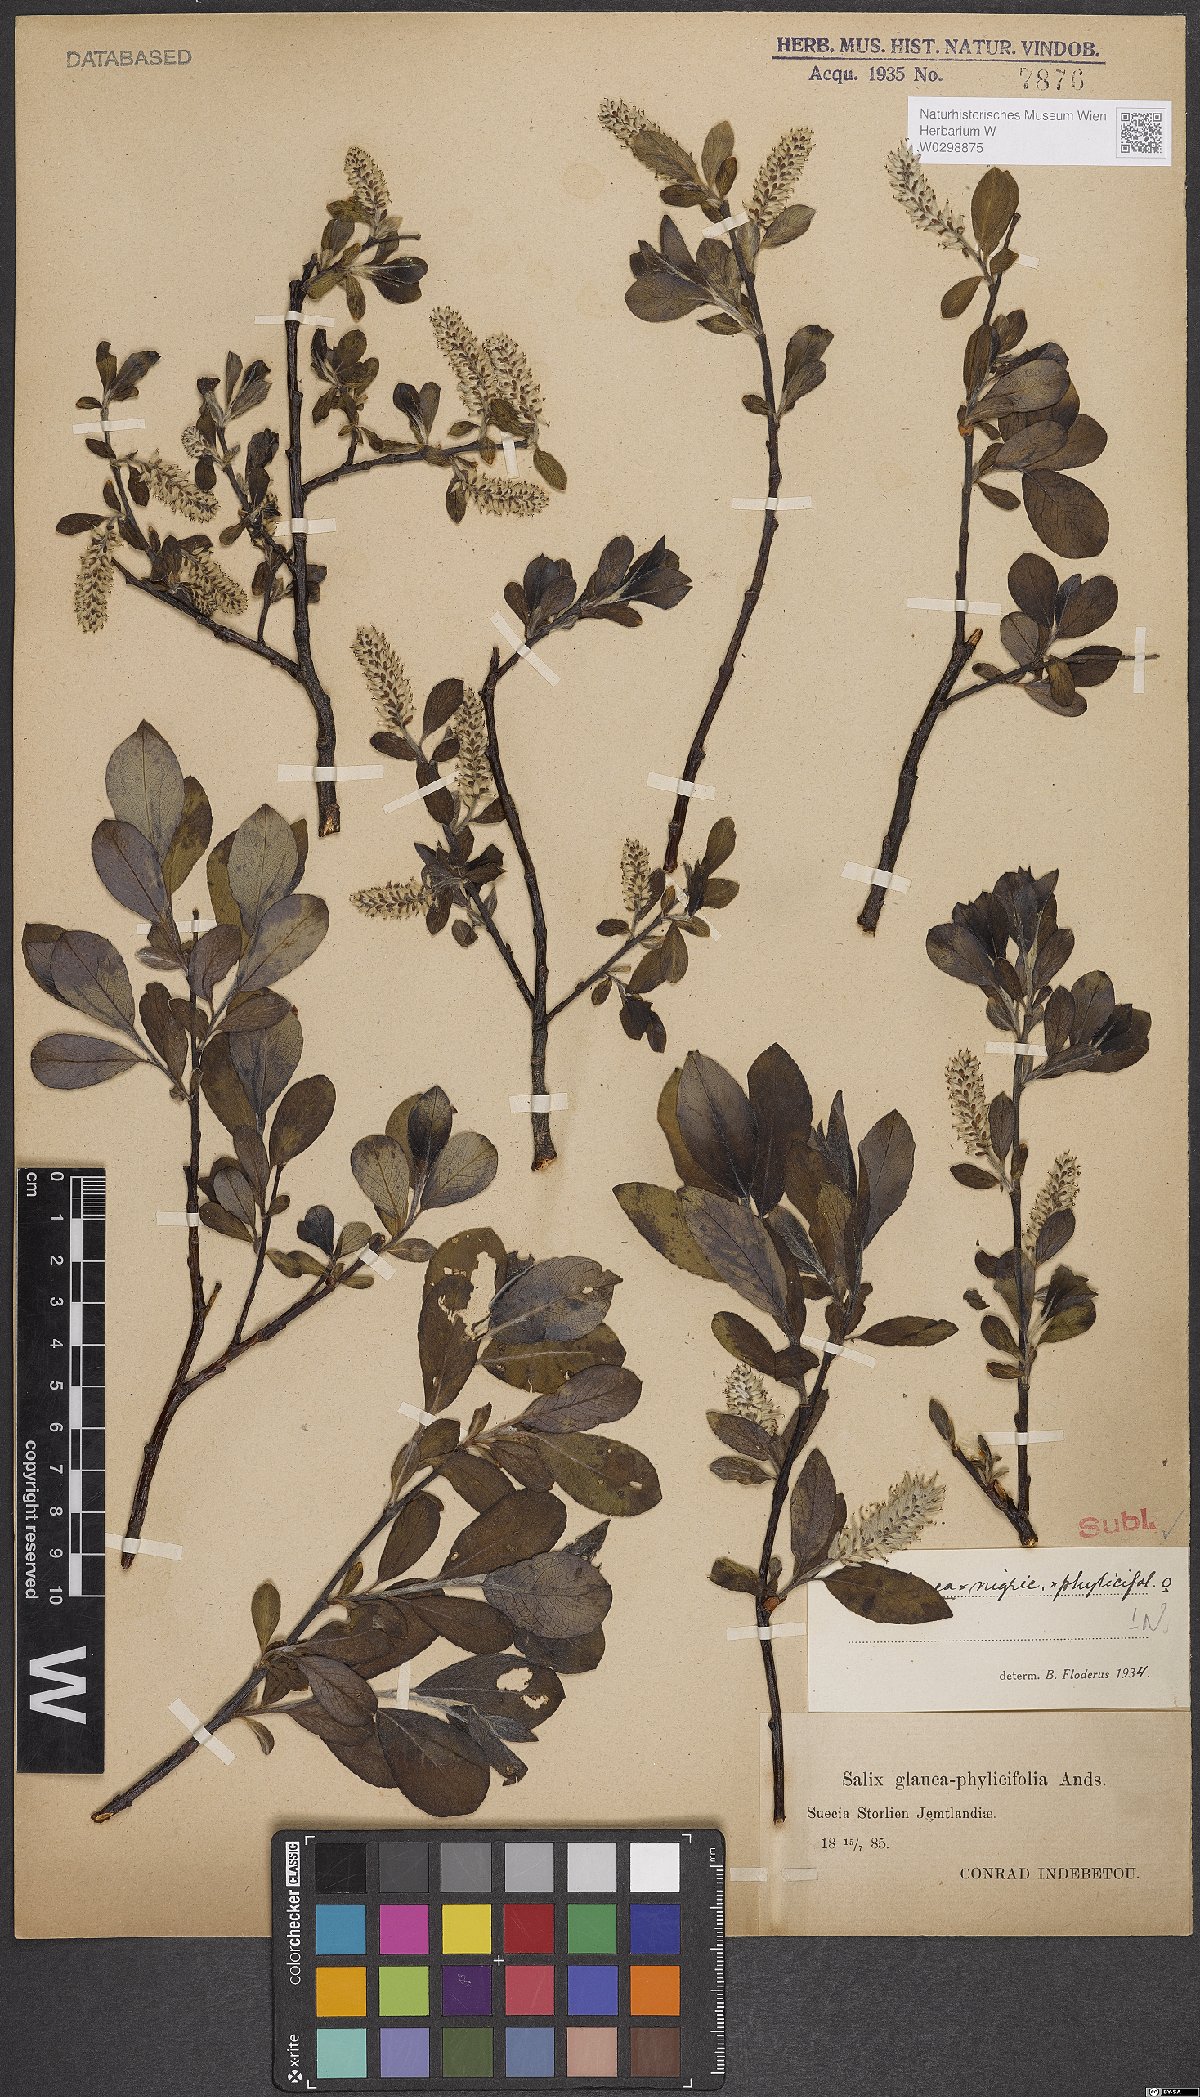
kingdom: Plantae
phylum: Tracheophyta
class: Magnoliopsida
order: Malpighiales
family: Salicaceae
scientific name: Salicaceae
